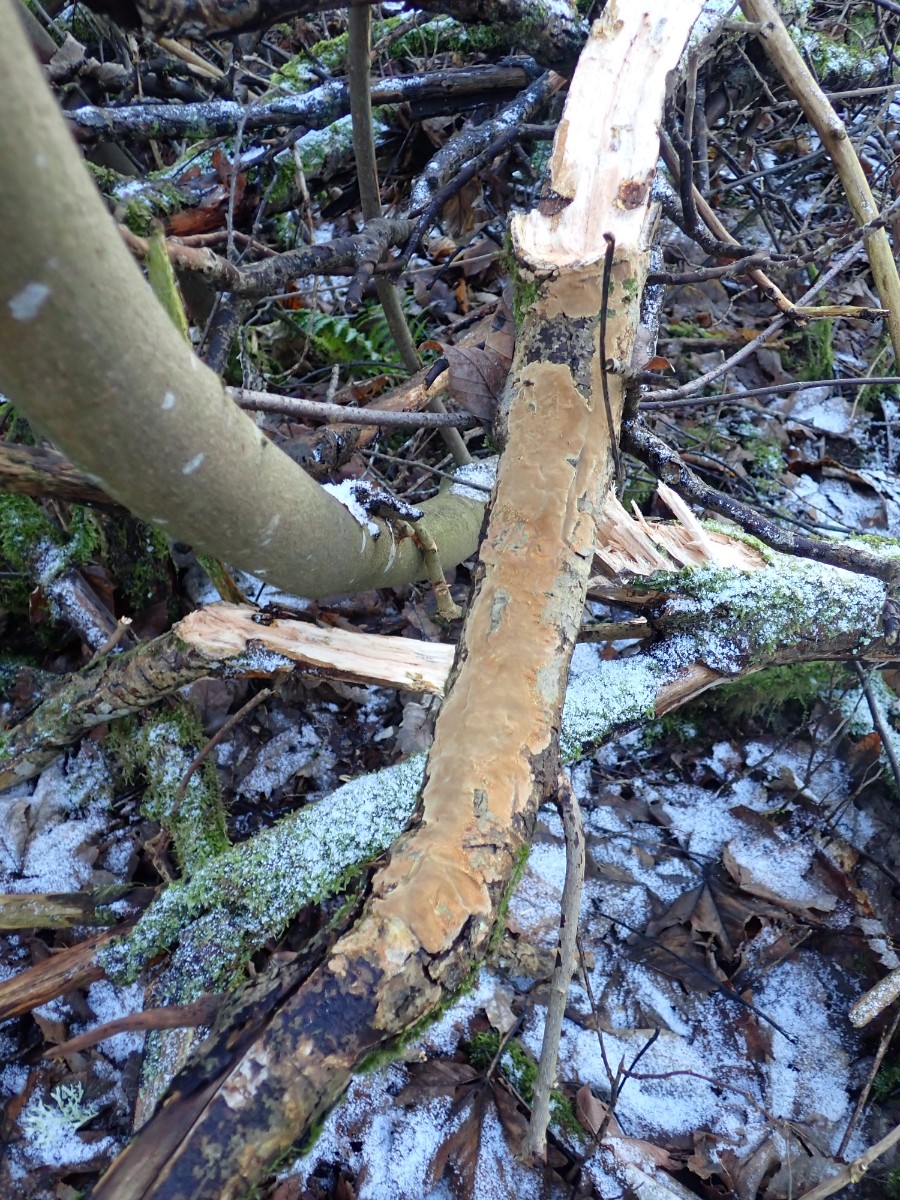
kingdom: Fungi
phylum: Basidiomycota
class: Agaricomycetes
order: Hymenochaetales
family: Hymenochaetaceae
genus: Fomitiporia
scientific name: Fomitiporia punctata
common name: pude-ildporesvamp
